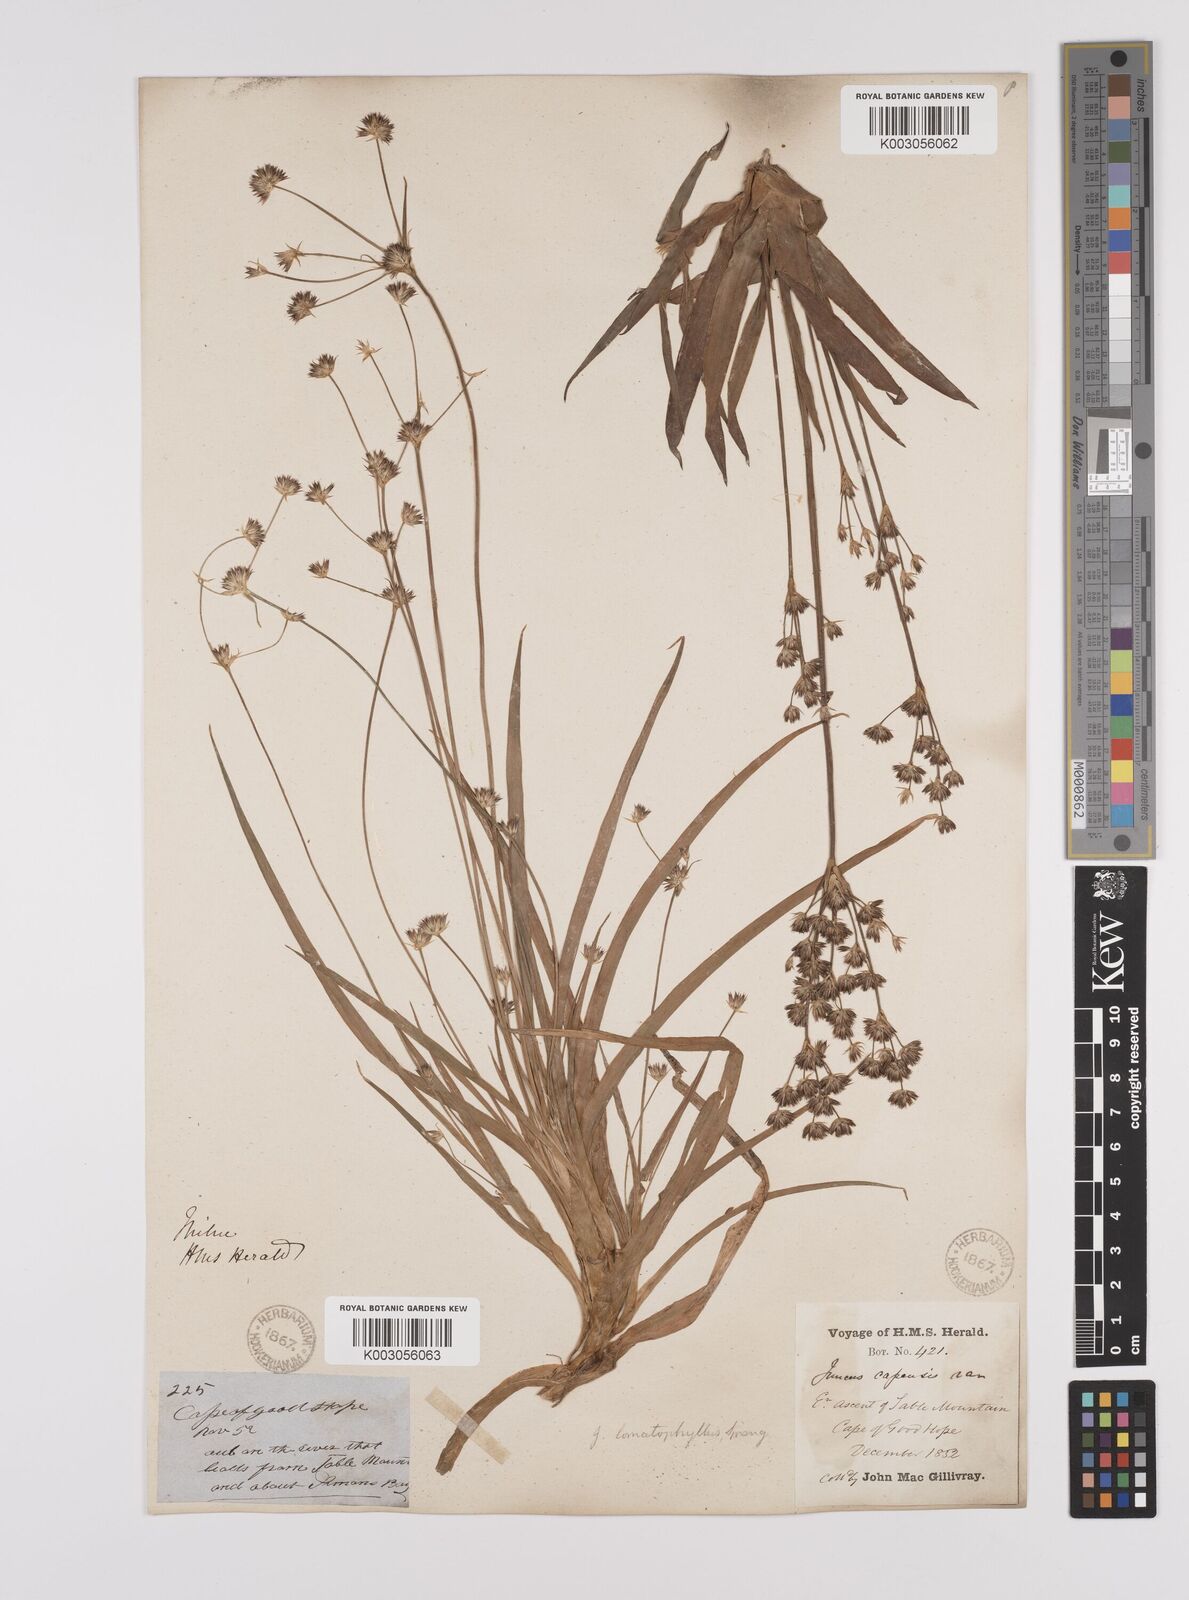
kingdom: Plantae
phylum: Tracheophyta
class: Liliopsida
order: Poales
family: Juncaceae
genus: Juncus
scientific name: Juncus lomatophyllus
